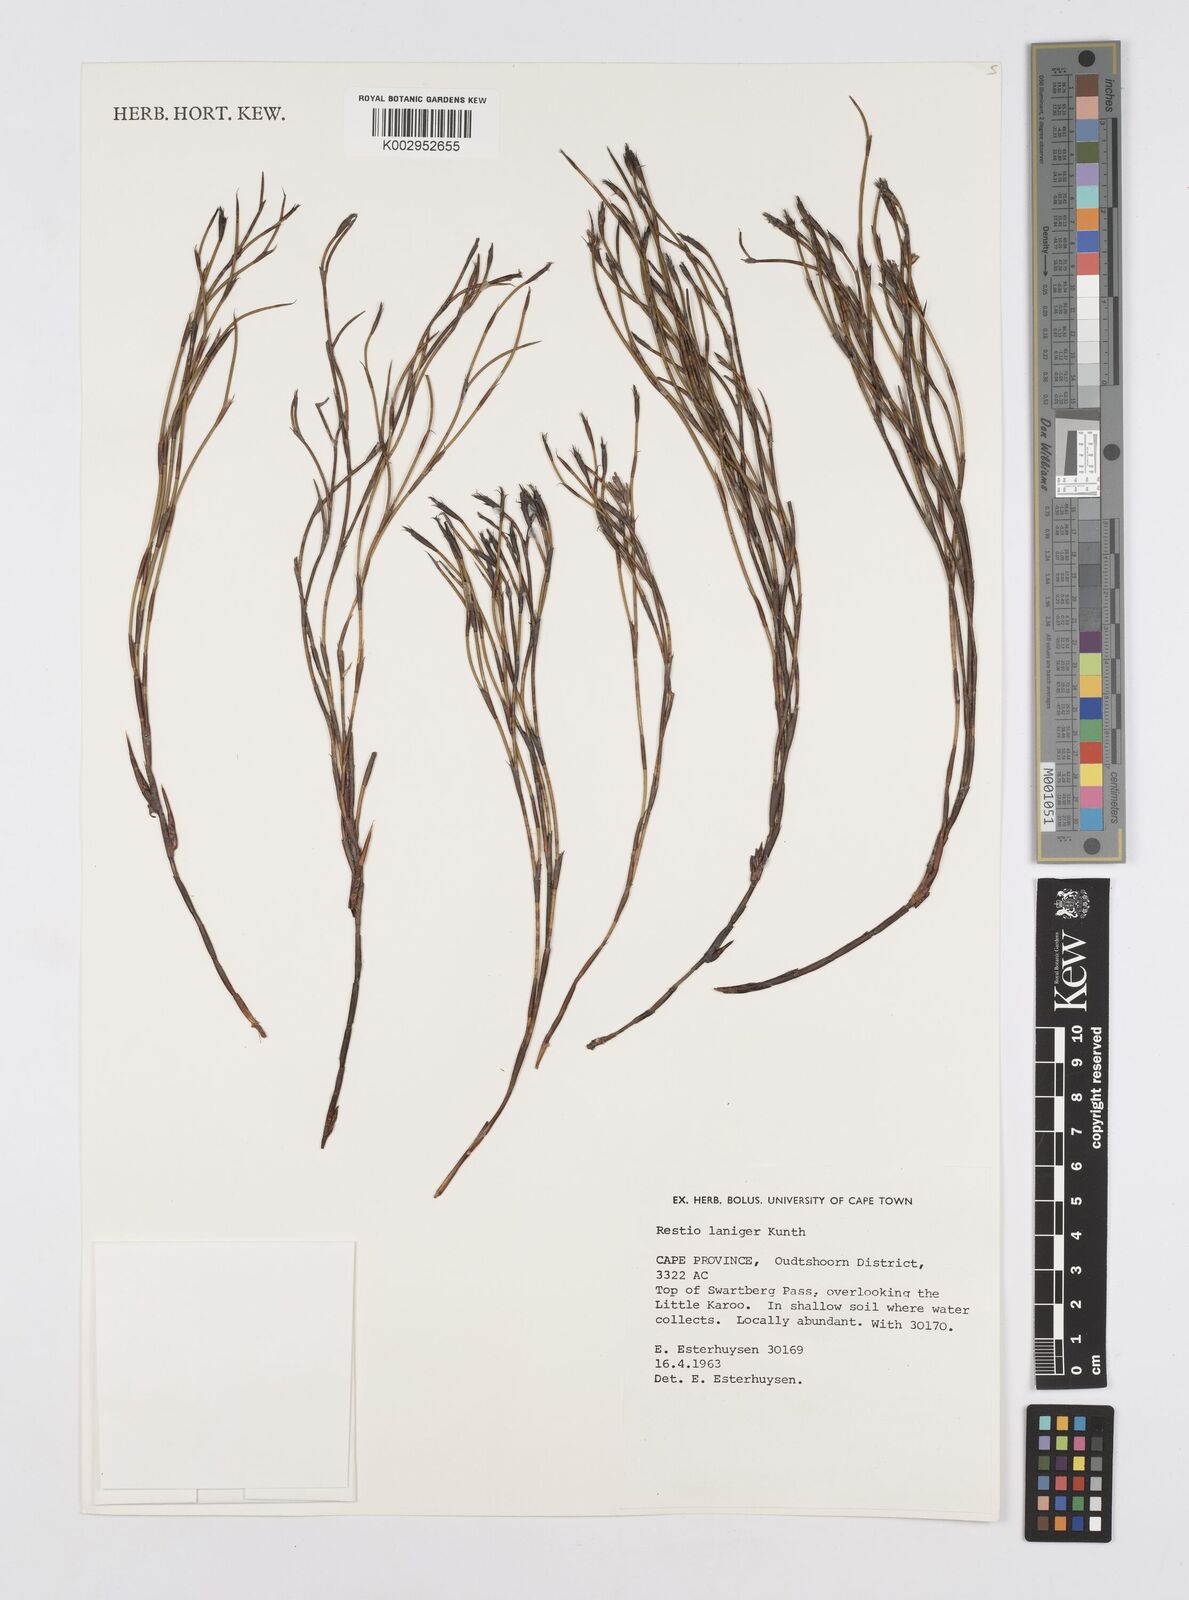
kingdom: Plantae
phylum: Tracheophyta
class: Liliopsida
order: Poales
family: Restionaceae
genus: Restio
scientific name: Restio laniger
